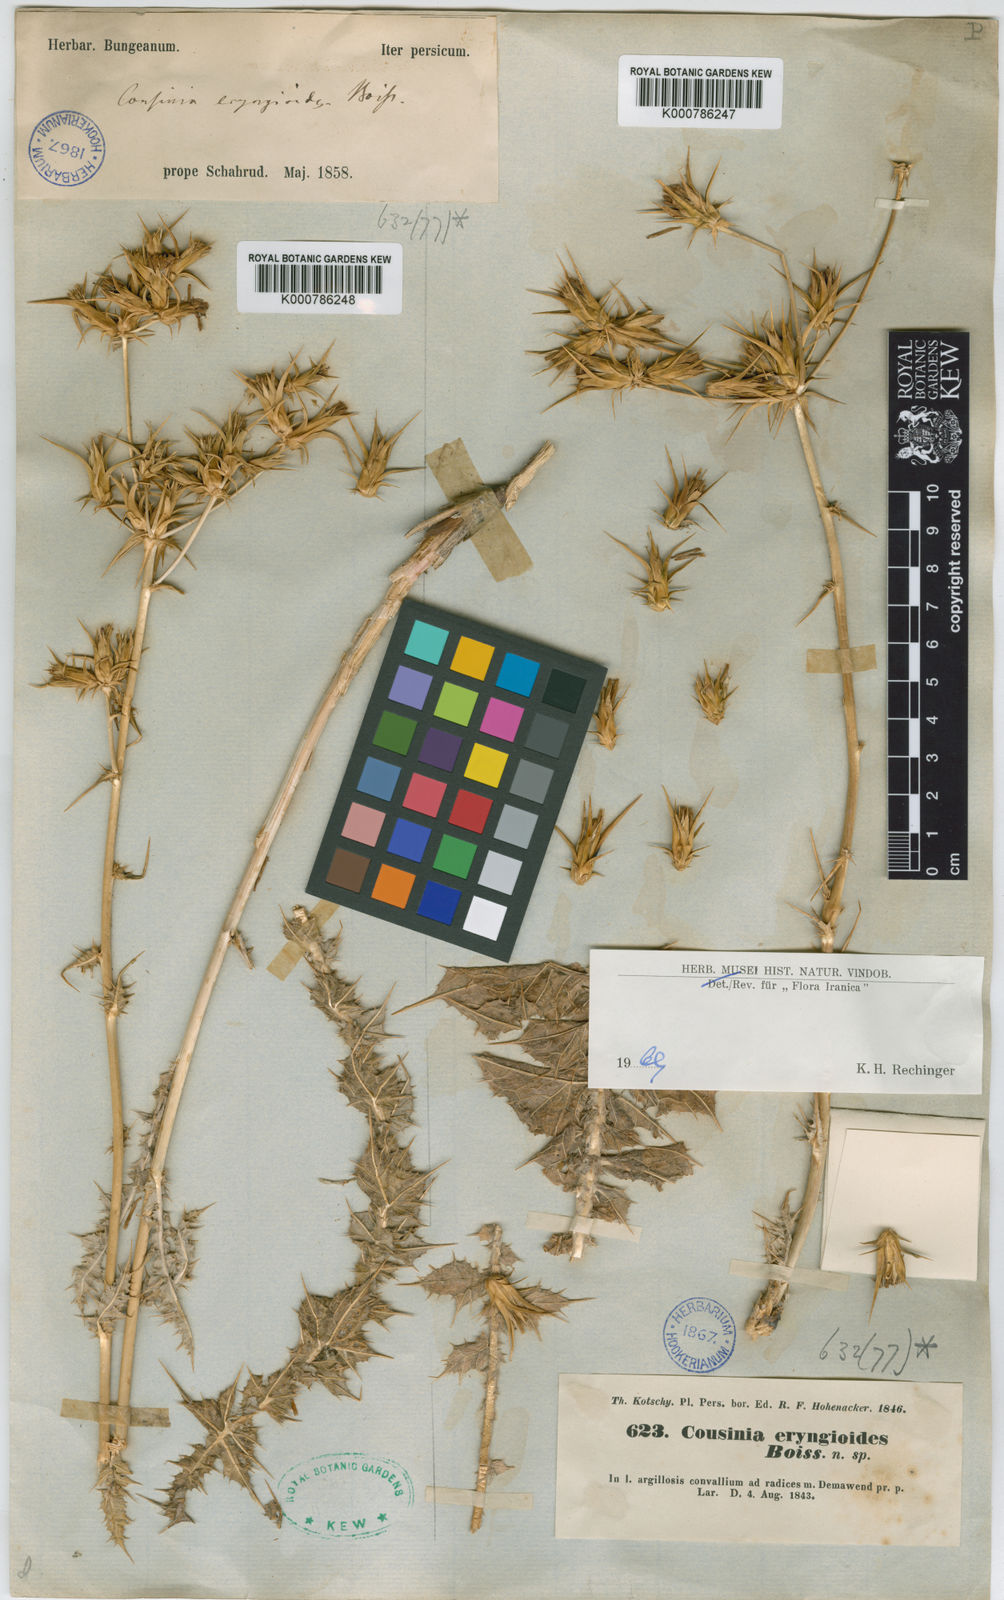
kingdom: Plantae
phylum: Tracheophyta
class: Magnoliopsida
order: Asterales
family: Asteraceae
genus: Cousinia
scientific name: Cousinia eryngioides
